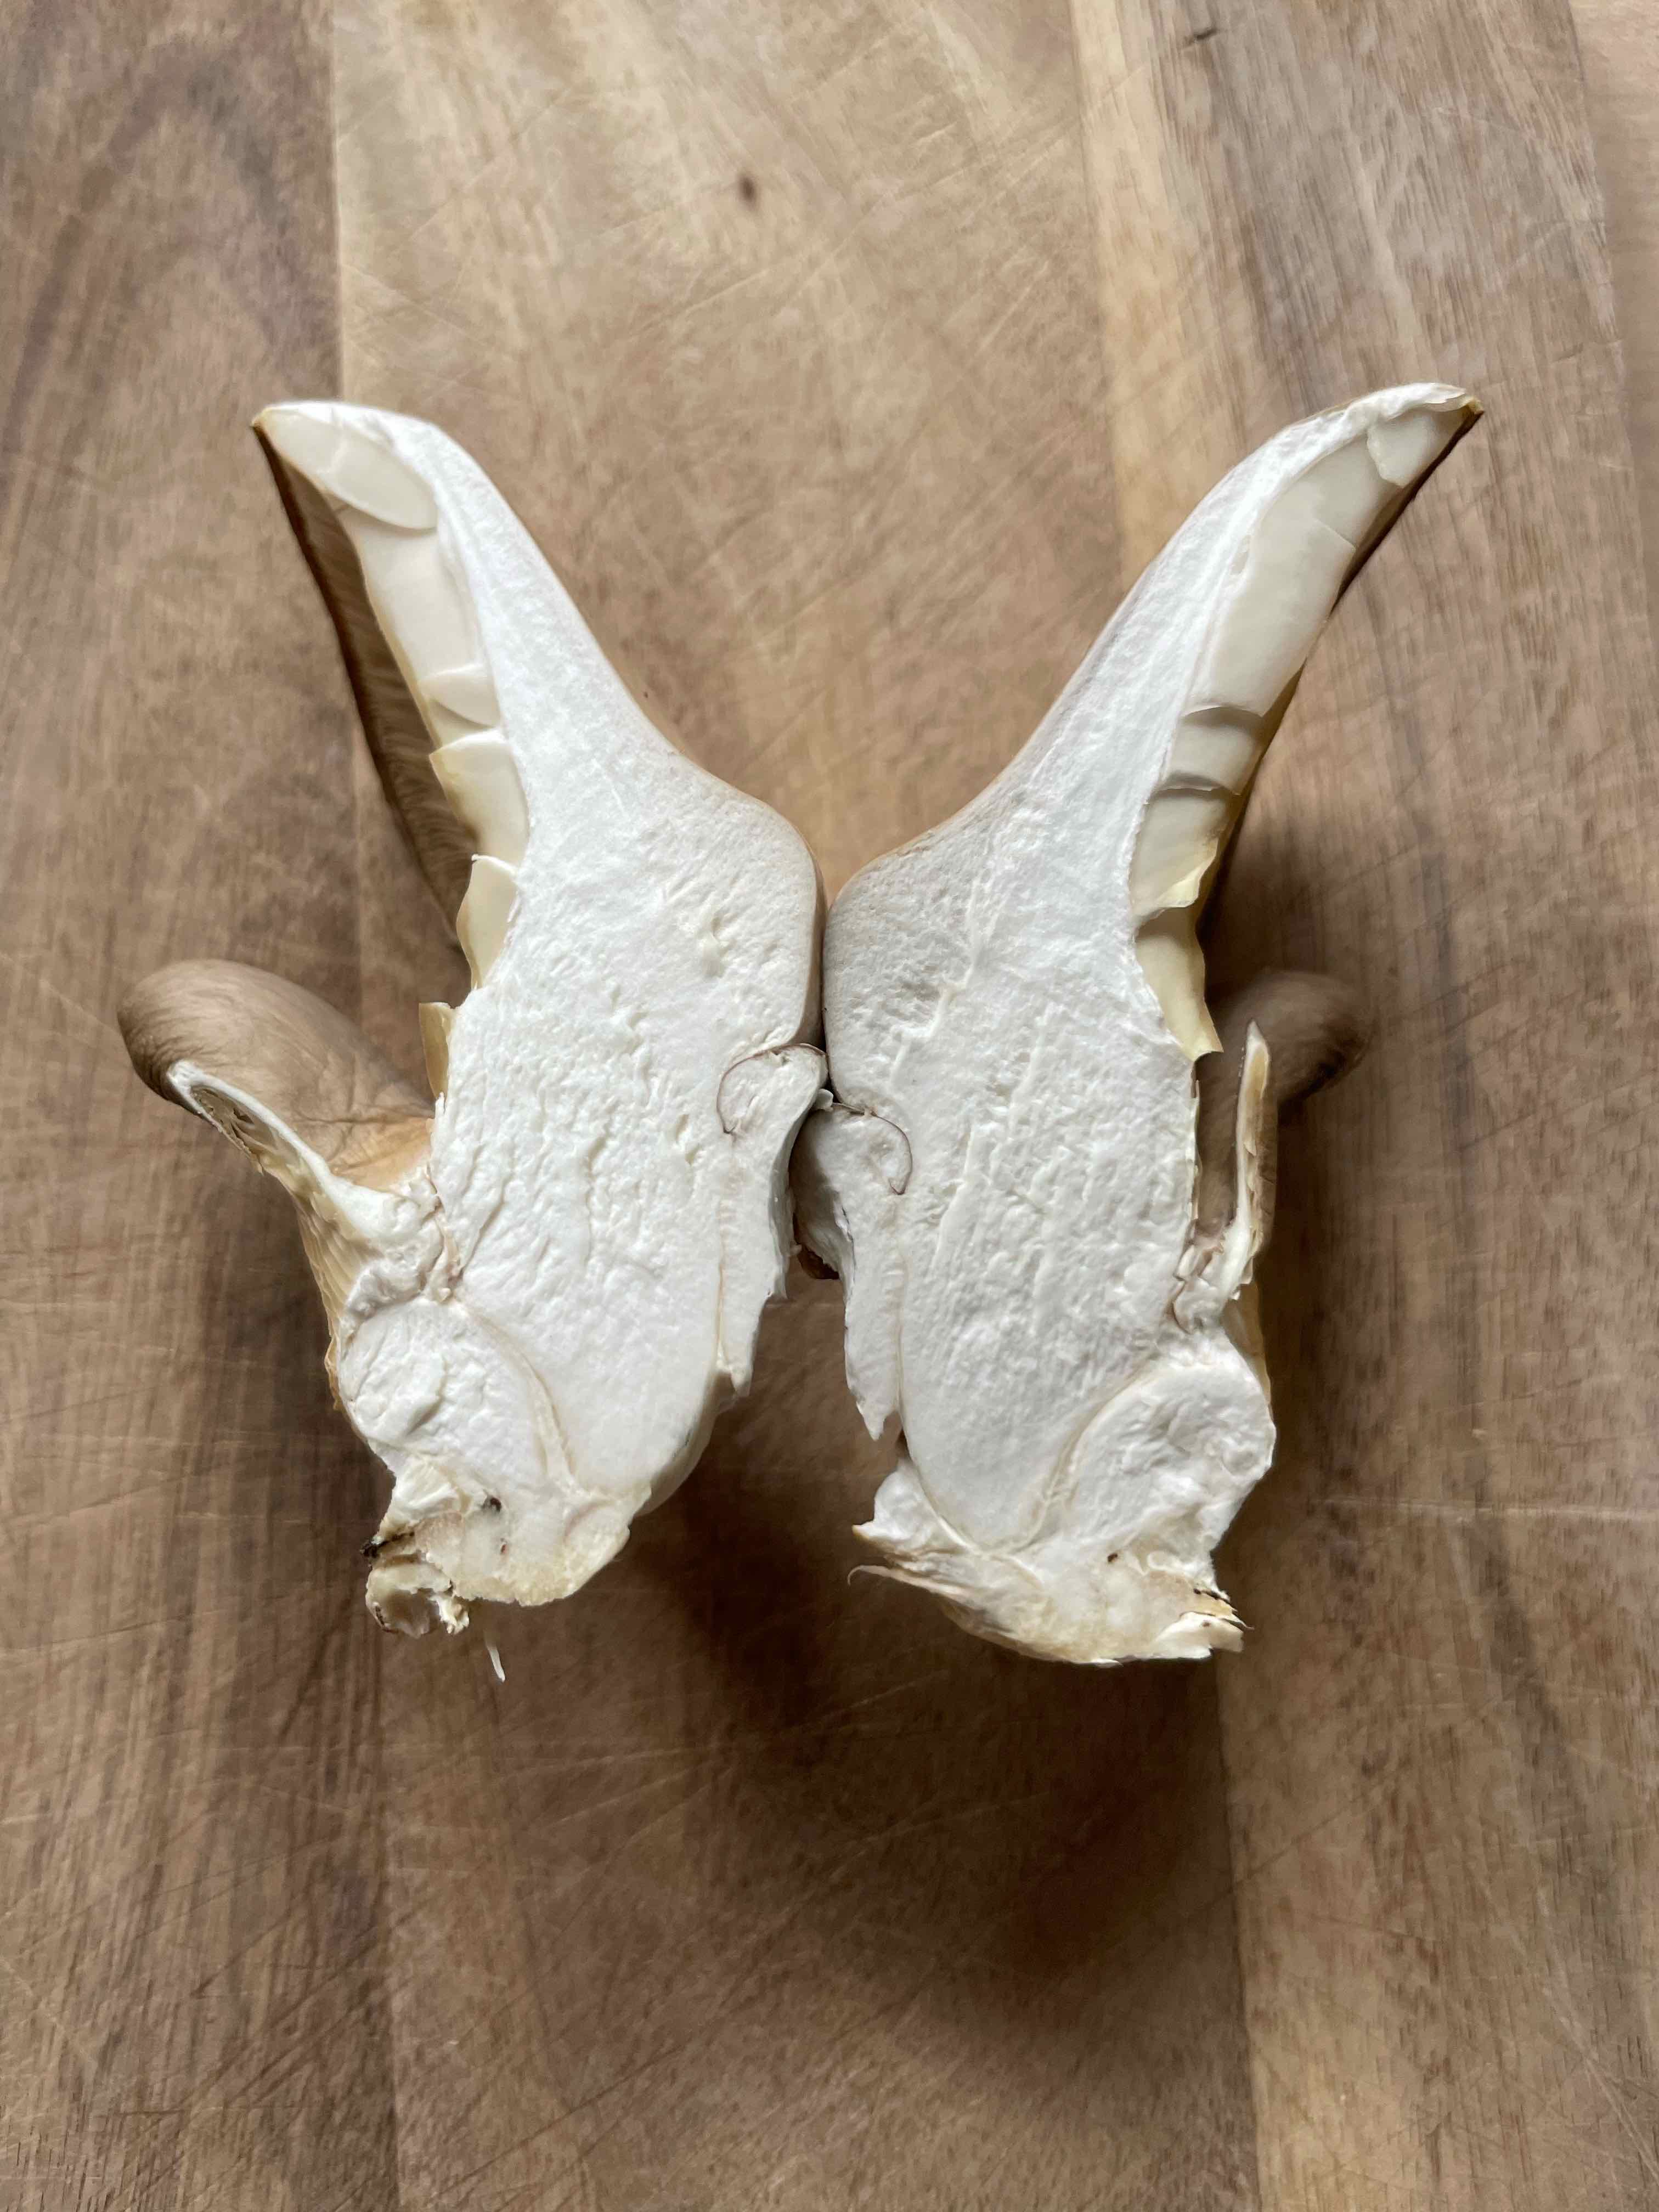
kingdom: Fungi
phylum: Basidiomycota
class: Agaricomycetes
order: Agaricales
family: Pleurotaceae
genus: Pleurotus
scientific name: Pleurotus ostreatus
